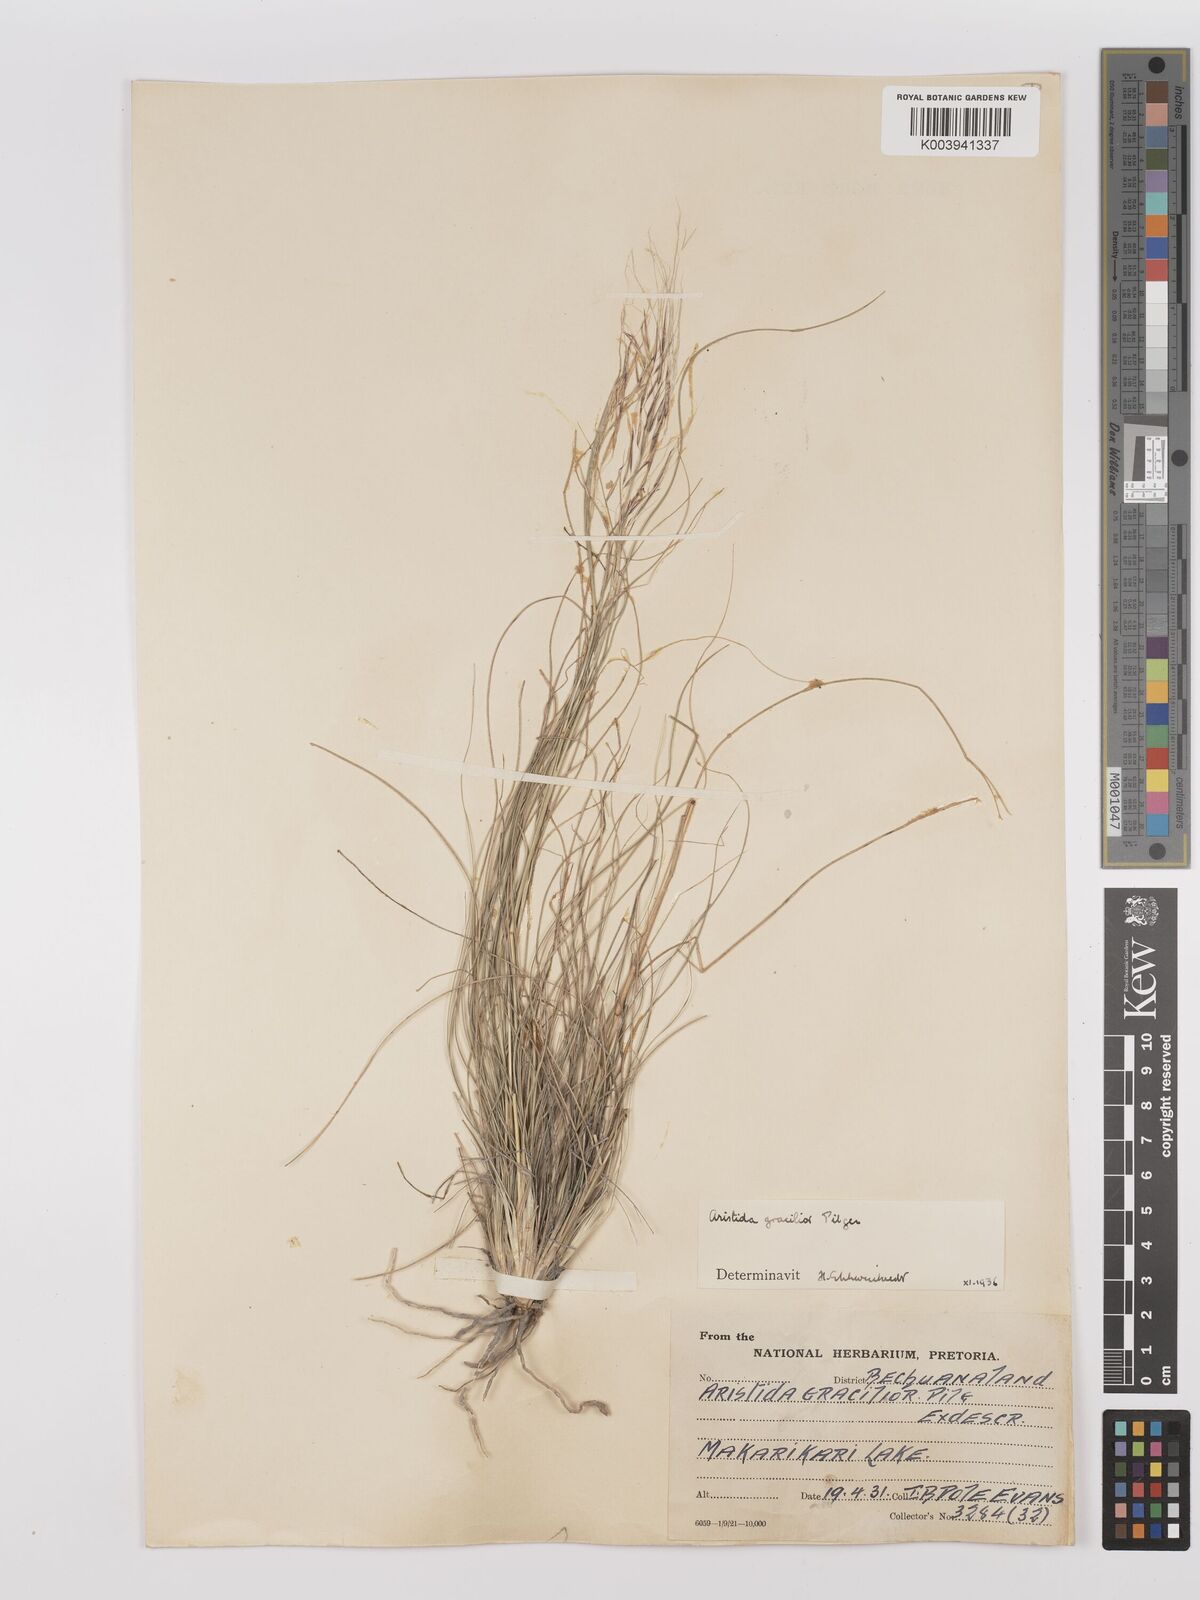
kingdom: Plantae
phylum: Tracheophyta
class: Liliopsida
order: Poales
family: Poaceae
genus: Stipagrostis
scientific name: Stipagrostis hirtigluma
